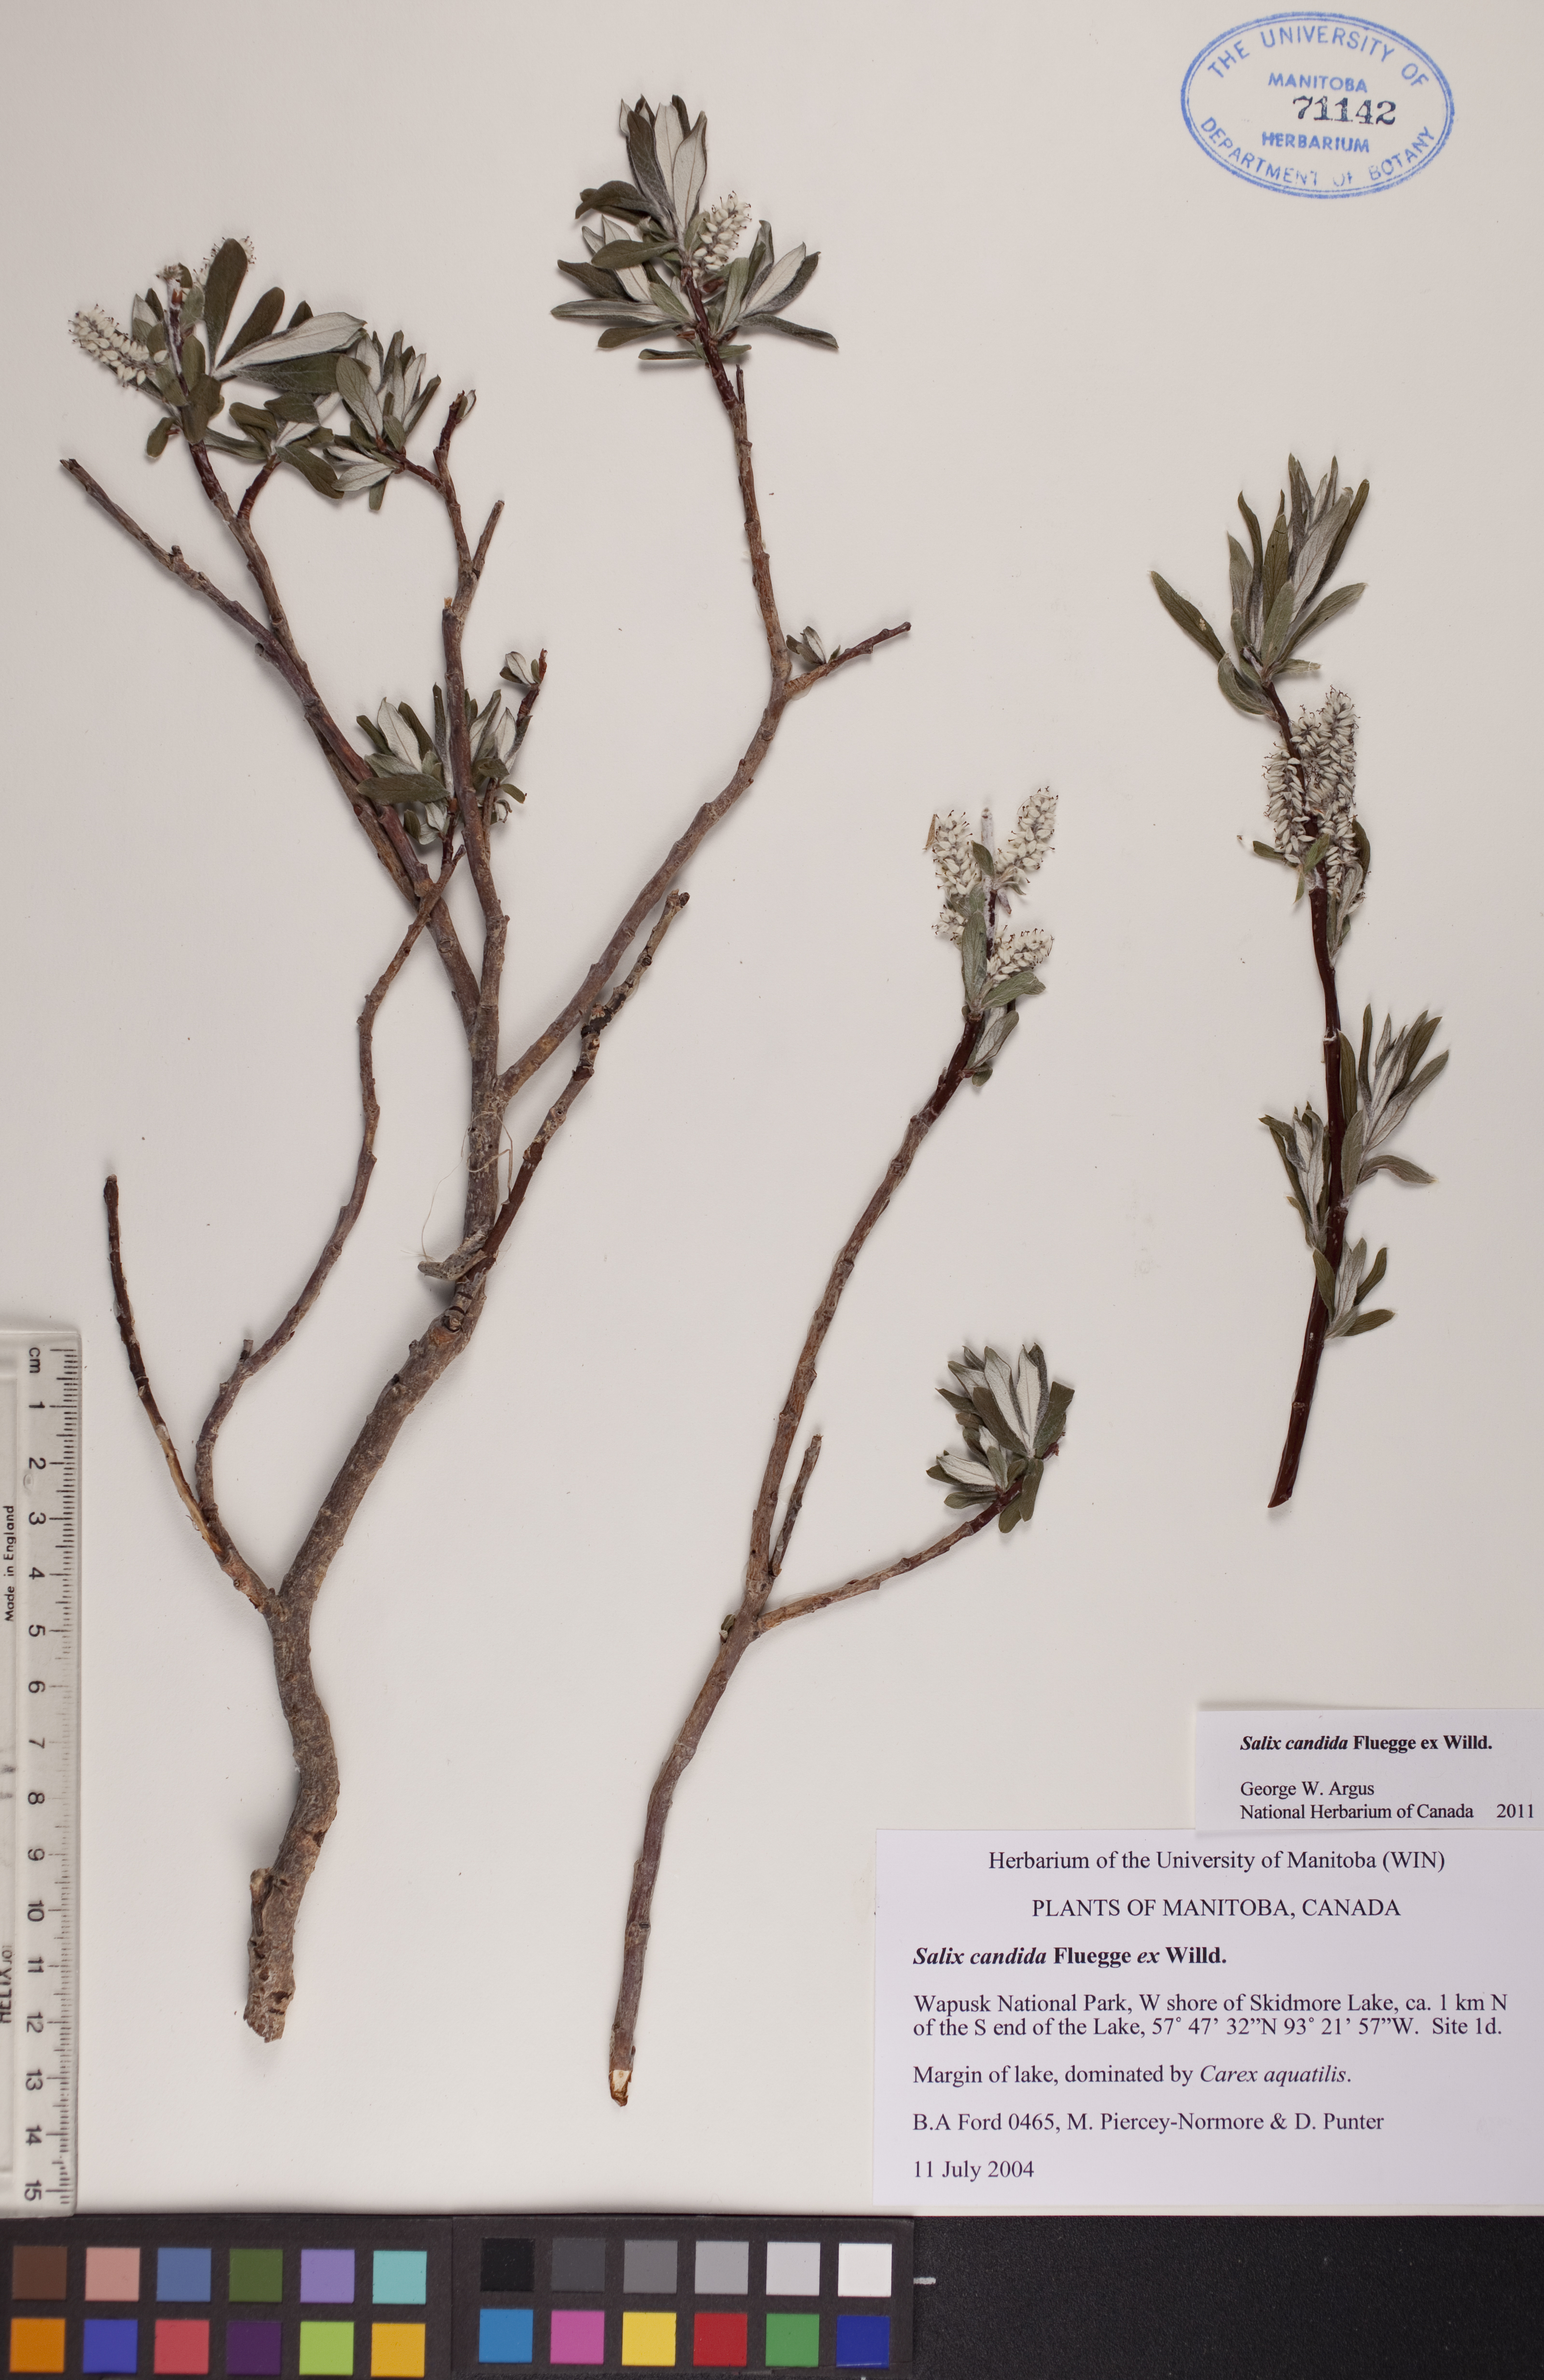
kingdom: Plantae
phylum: Tracheophyta
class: Magnoliopsida
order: Malpighiales
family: Salicaceae
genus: Salix
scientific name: Salix candida
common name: Hoary willow
